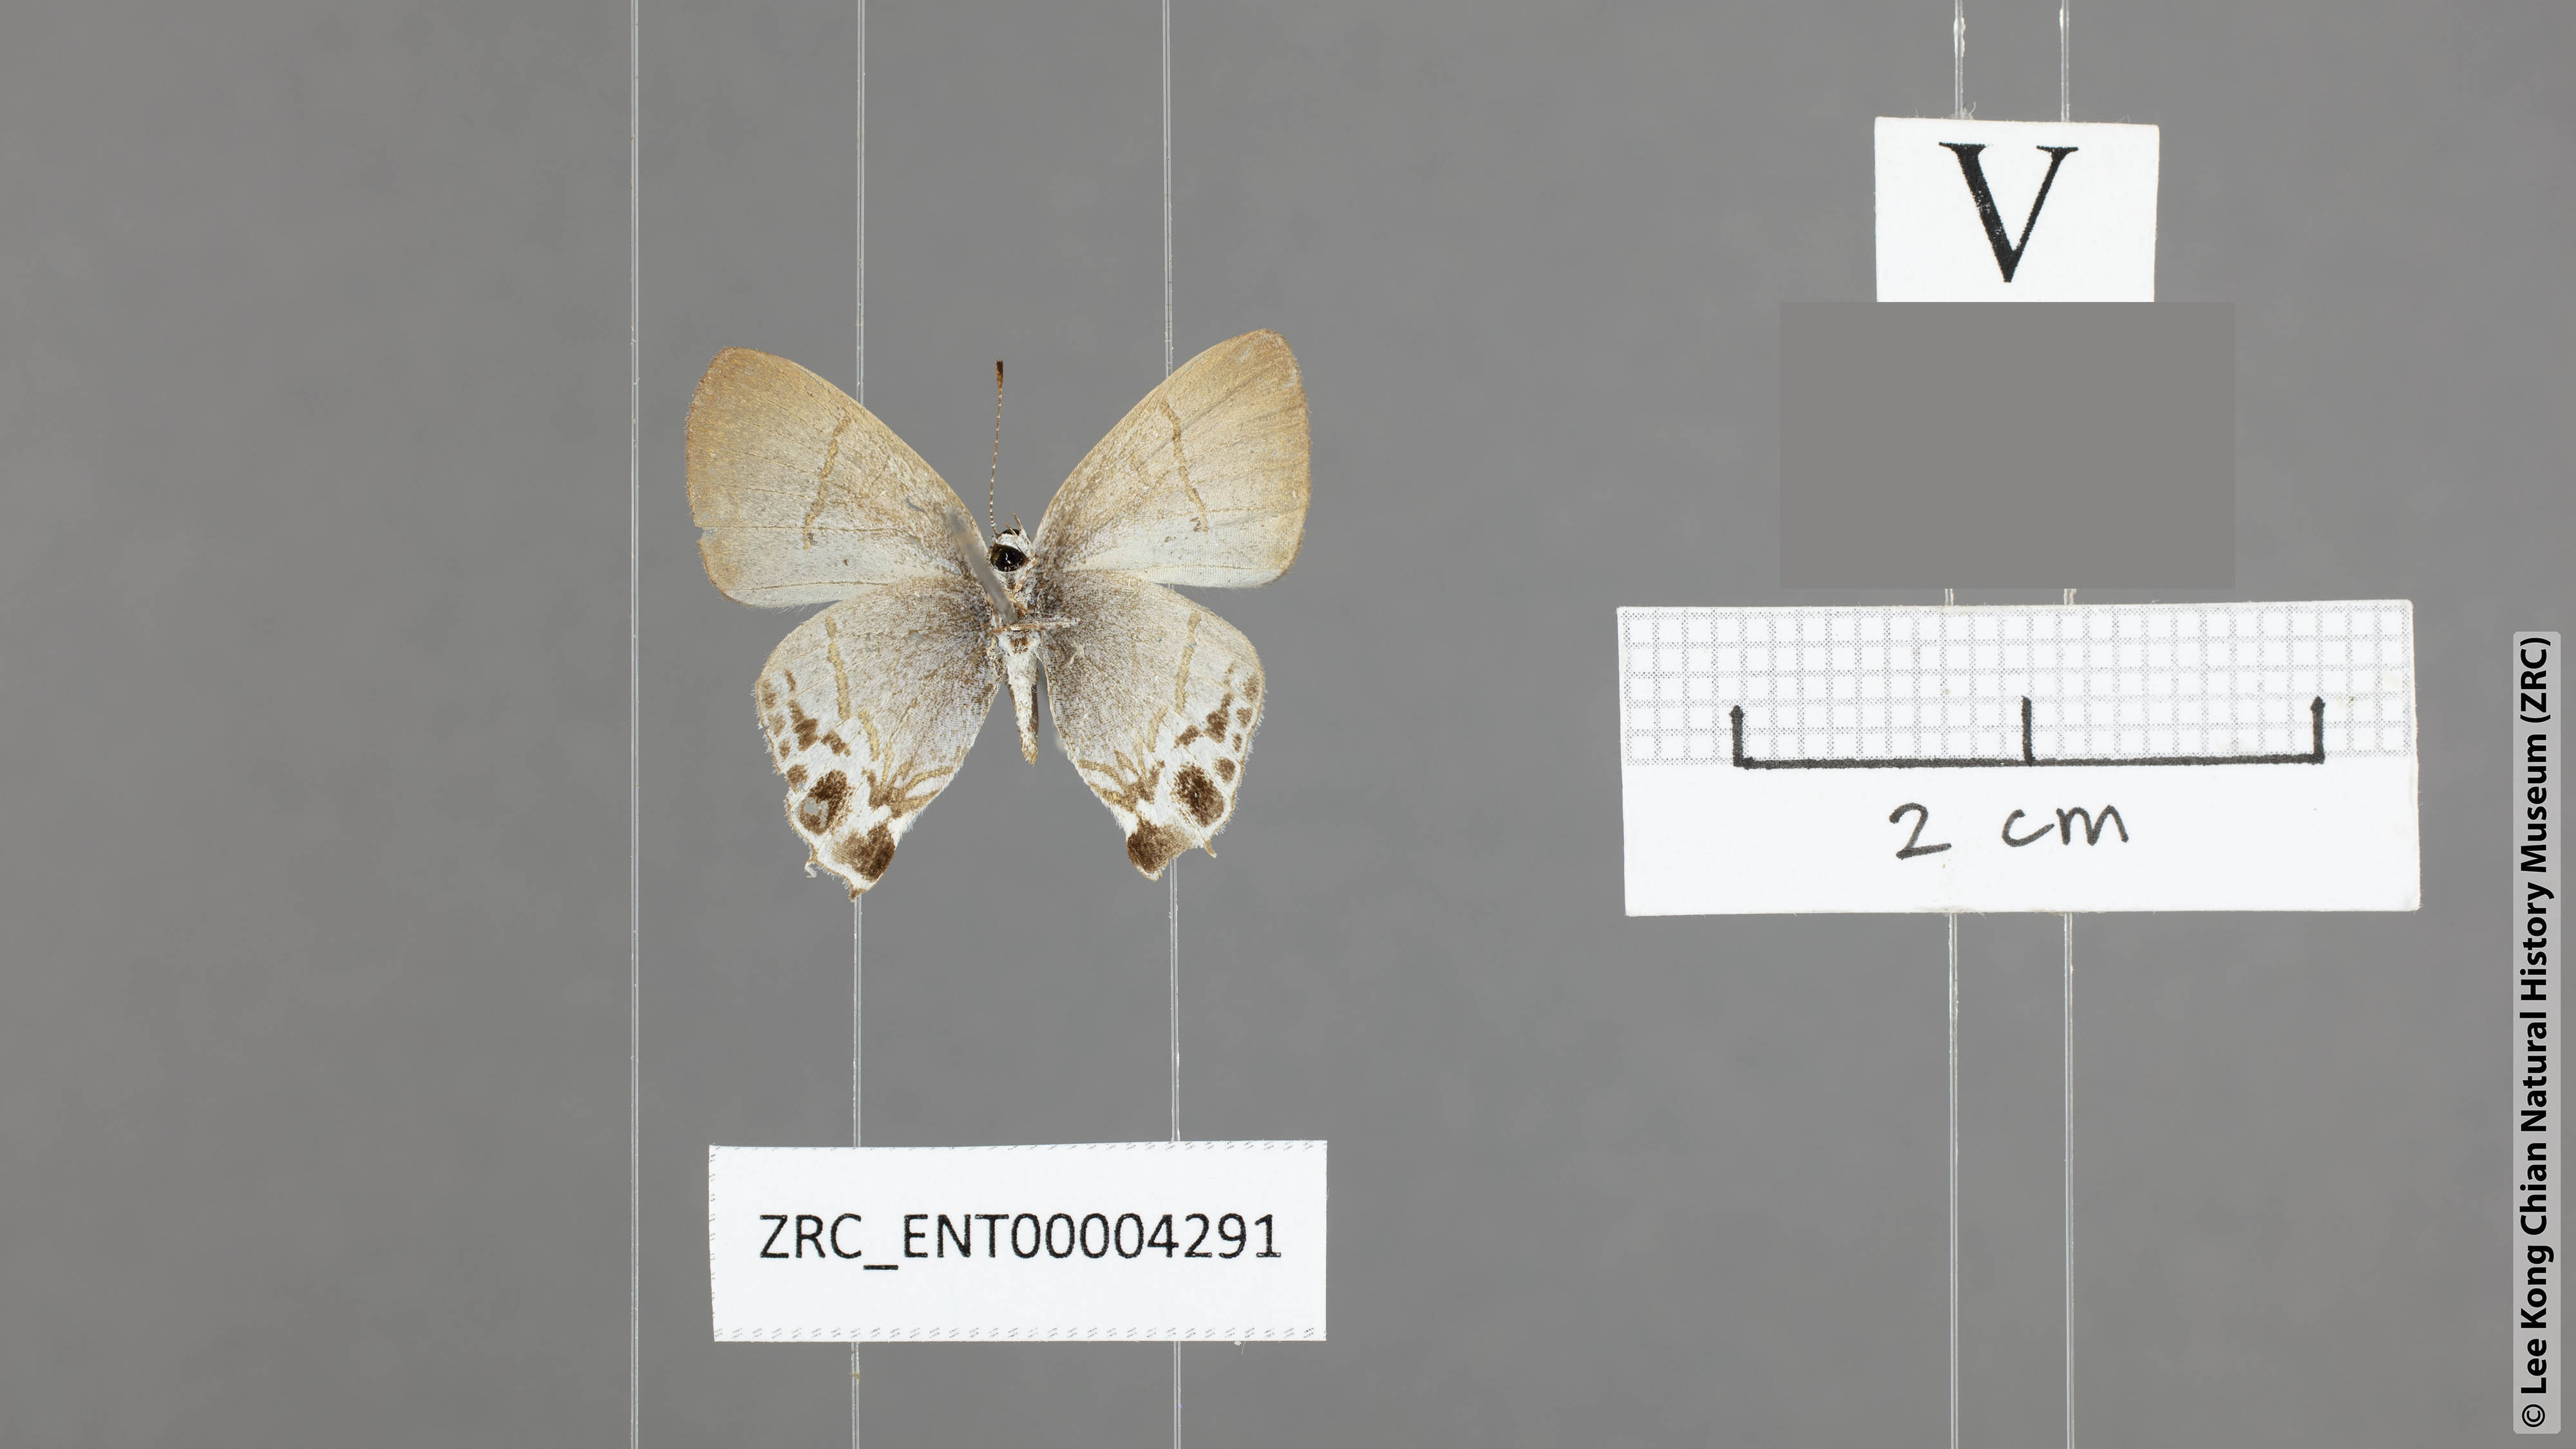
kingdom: Animalia
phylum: Arthropoda
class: Insecta
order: Lepidoptera
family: Lycaenidae
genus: Hypolycaena
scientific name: Hypolycaena amabilis
